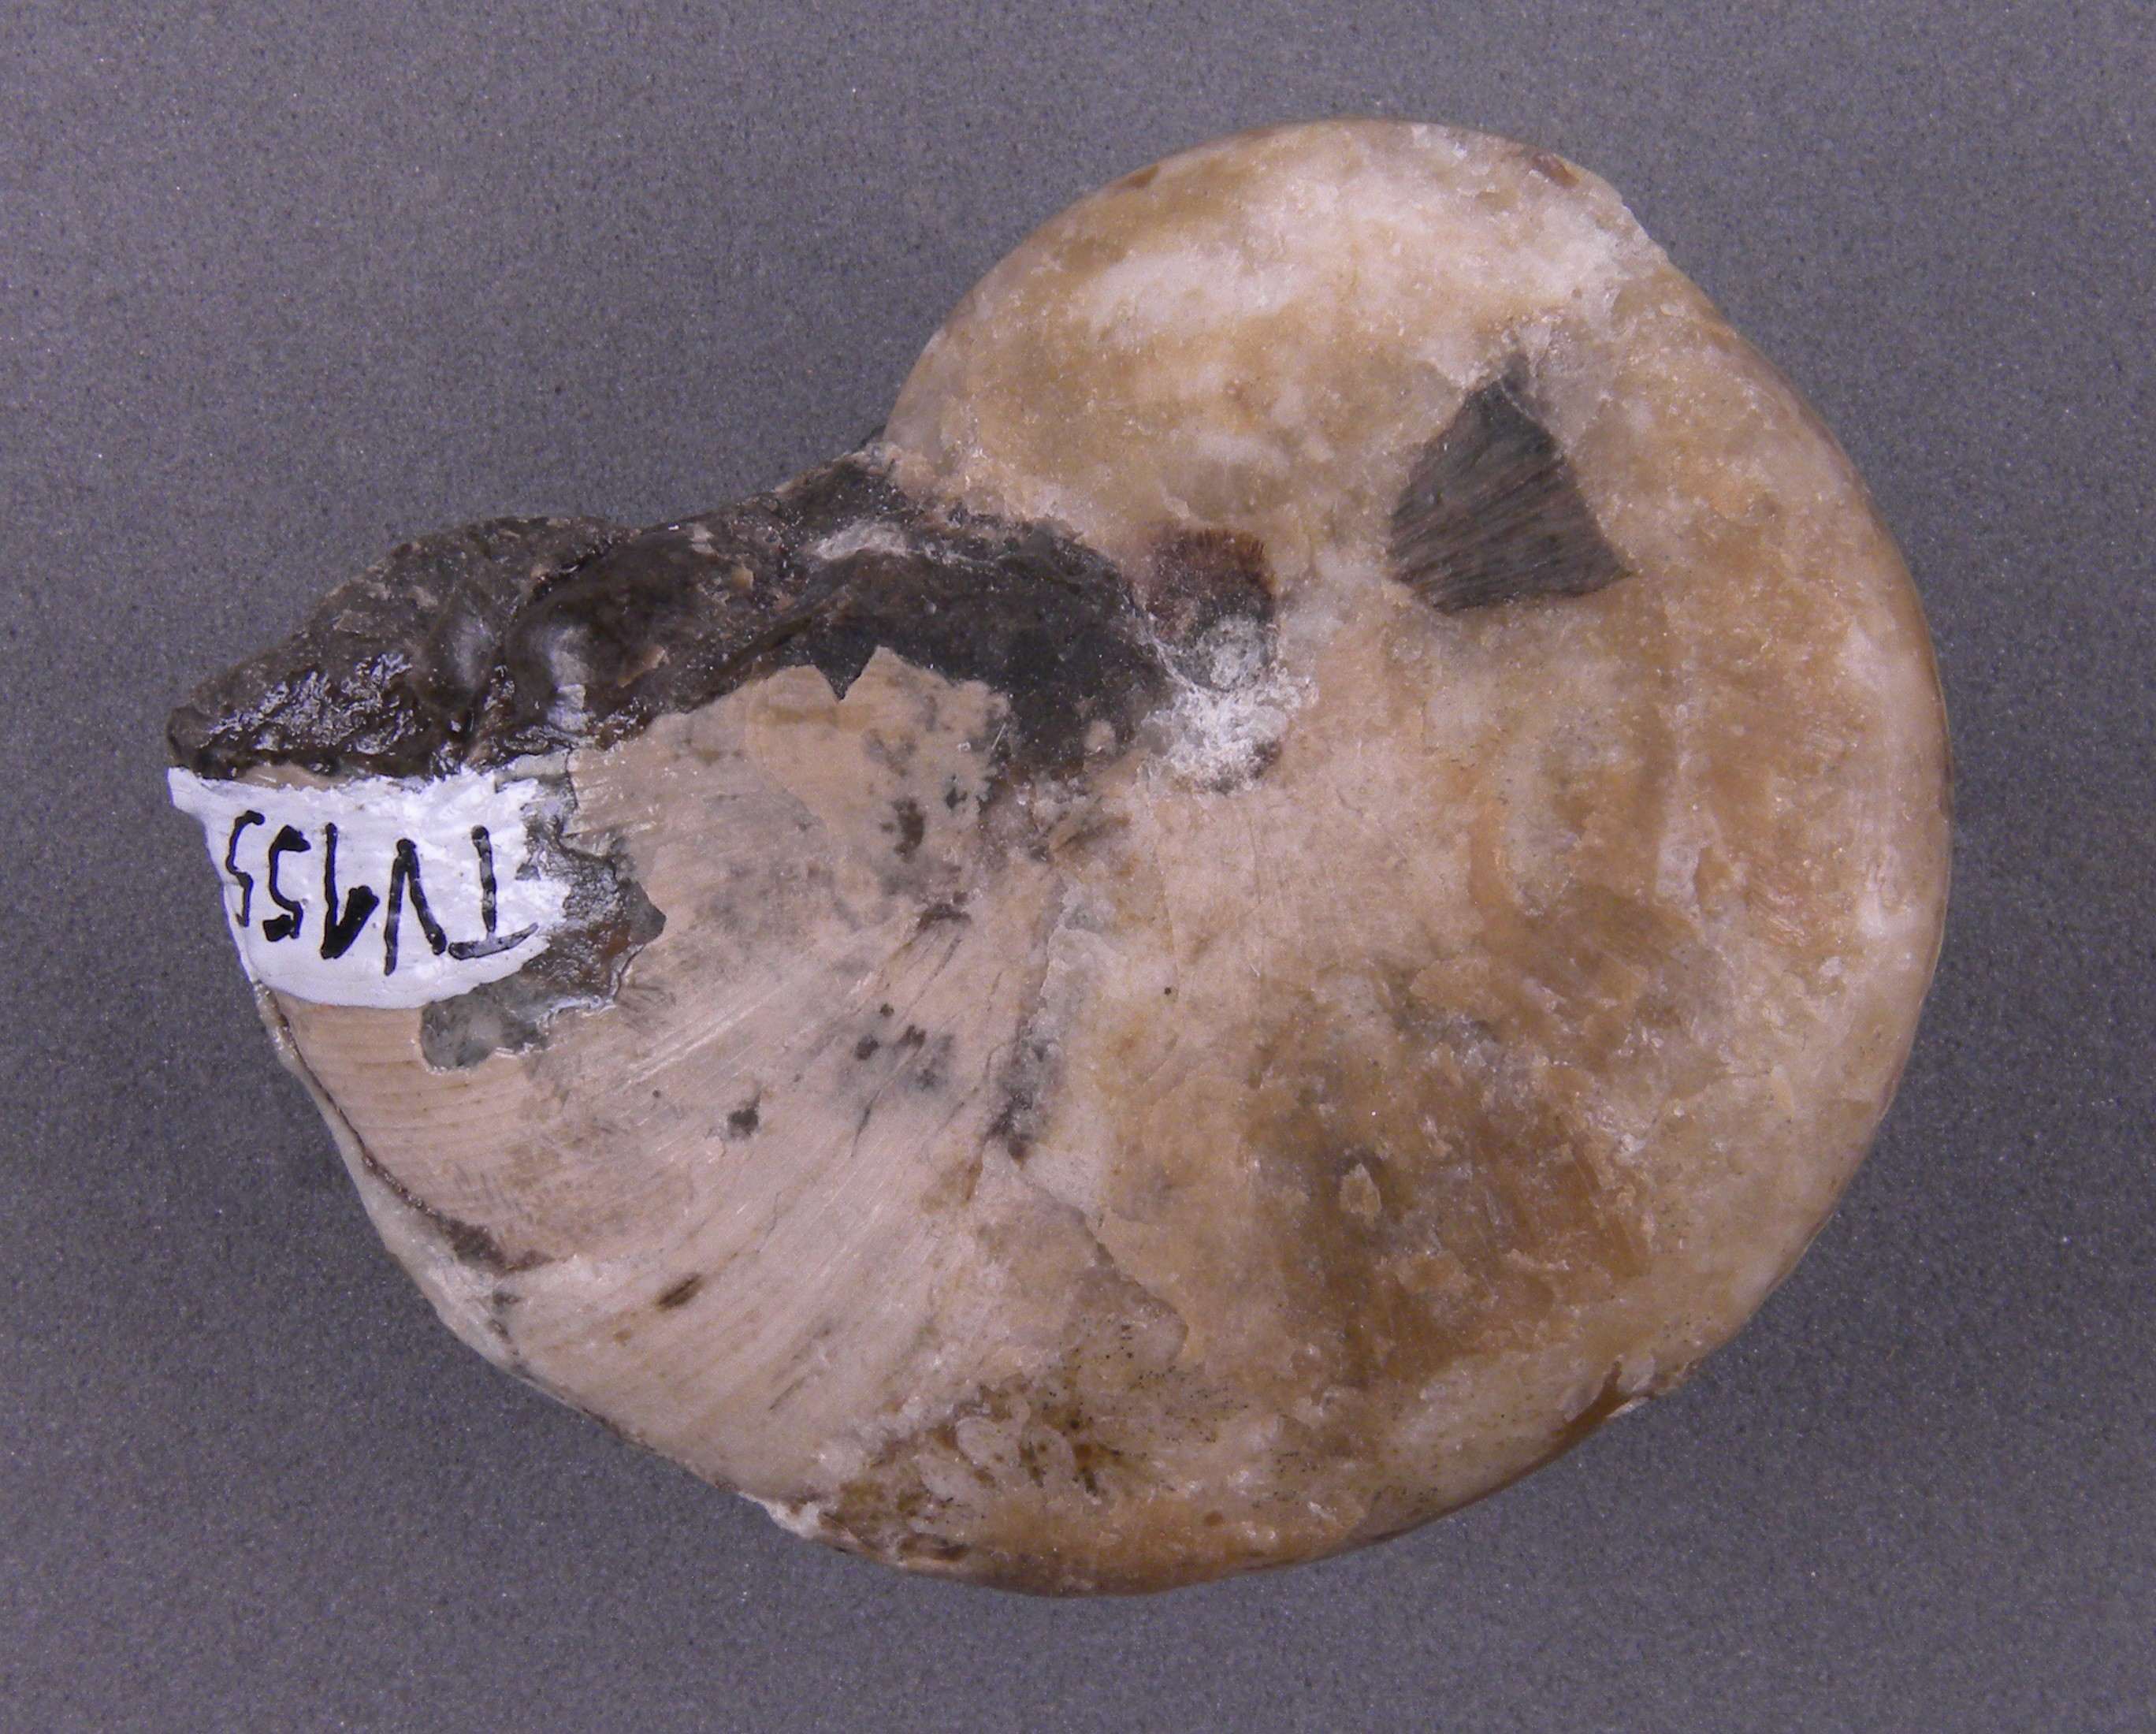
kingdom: Animalia
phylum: Mollusca
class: Cephalopoda
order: Phylloceratida
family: Phylloceratidae
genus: Phylloceras
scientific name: Phylloceras heterophyllum
